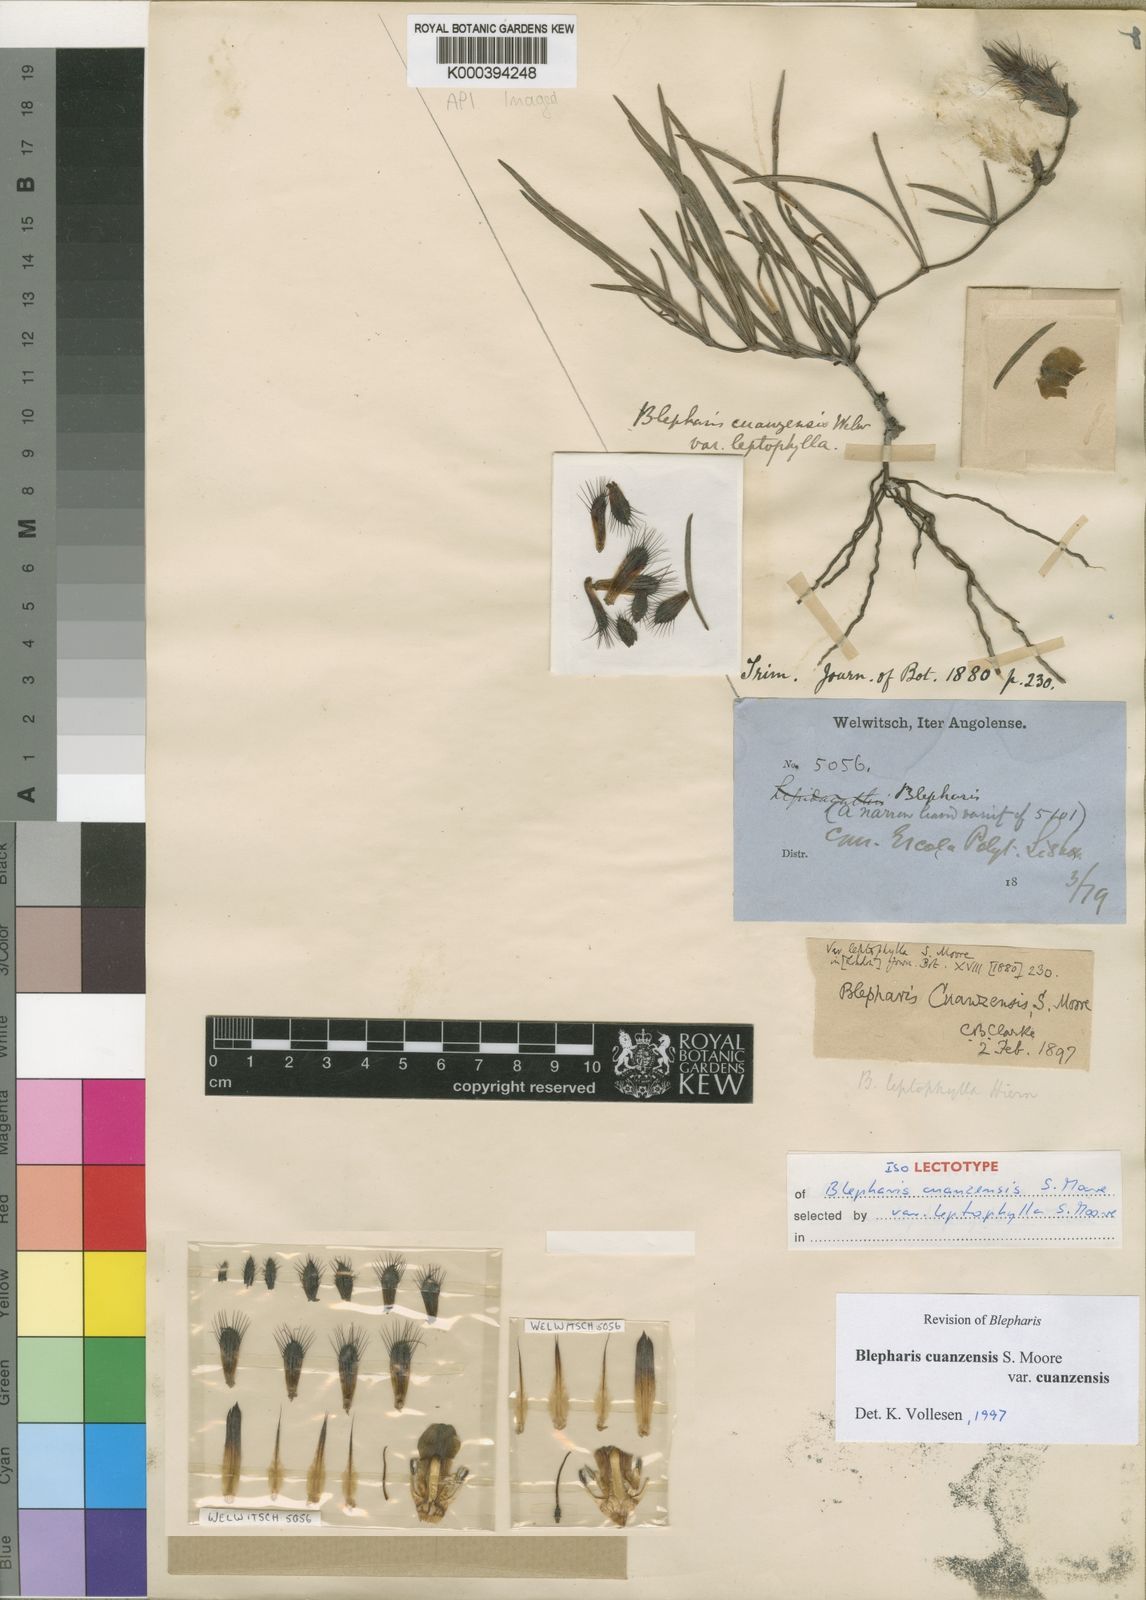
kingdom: Plantae
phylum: Tracheophyta
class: Magnoliopsida
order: Lamiales
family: Acanthaceae
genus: Blepharis
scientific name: Blepharis cuanzensis
